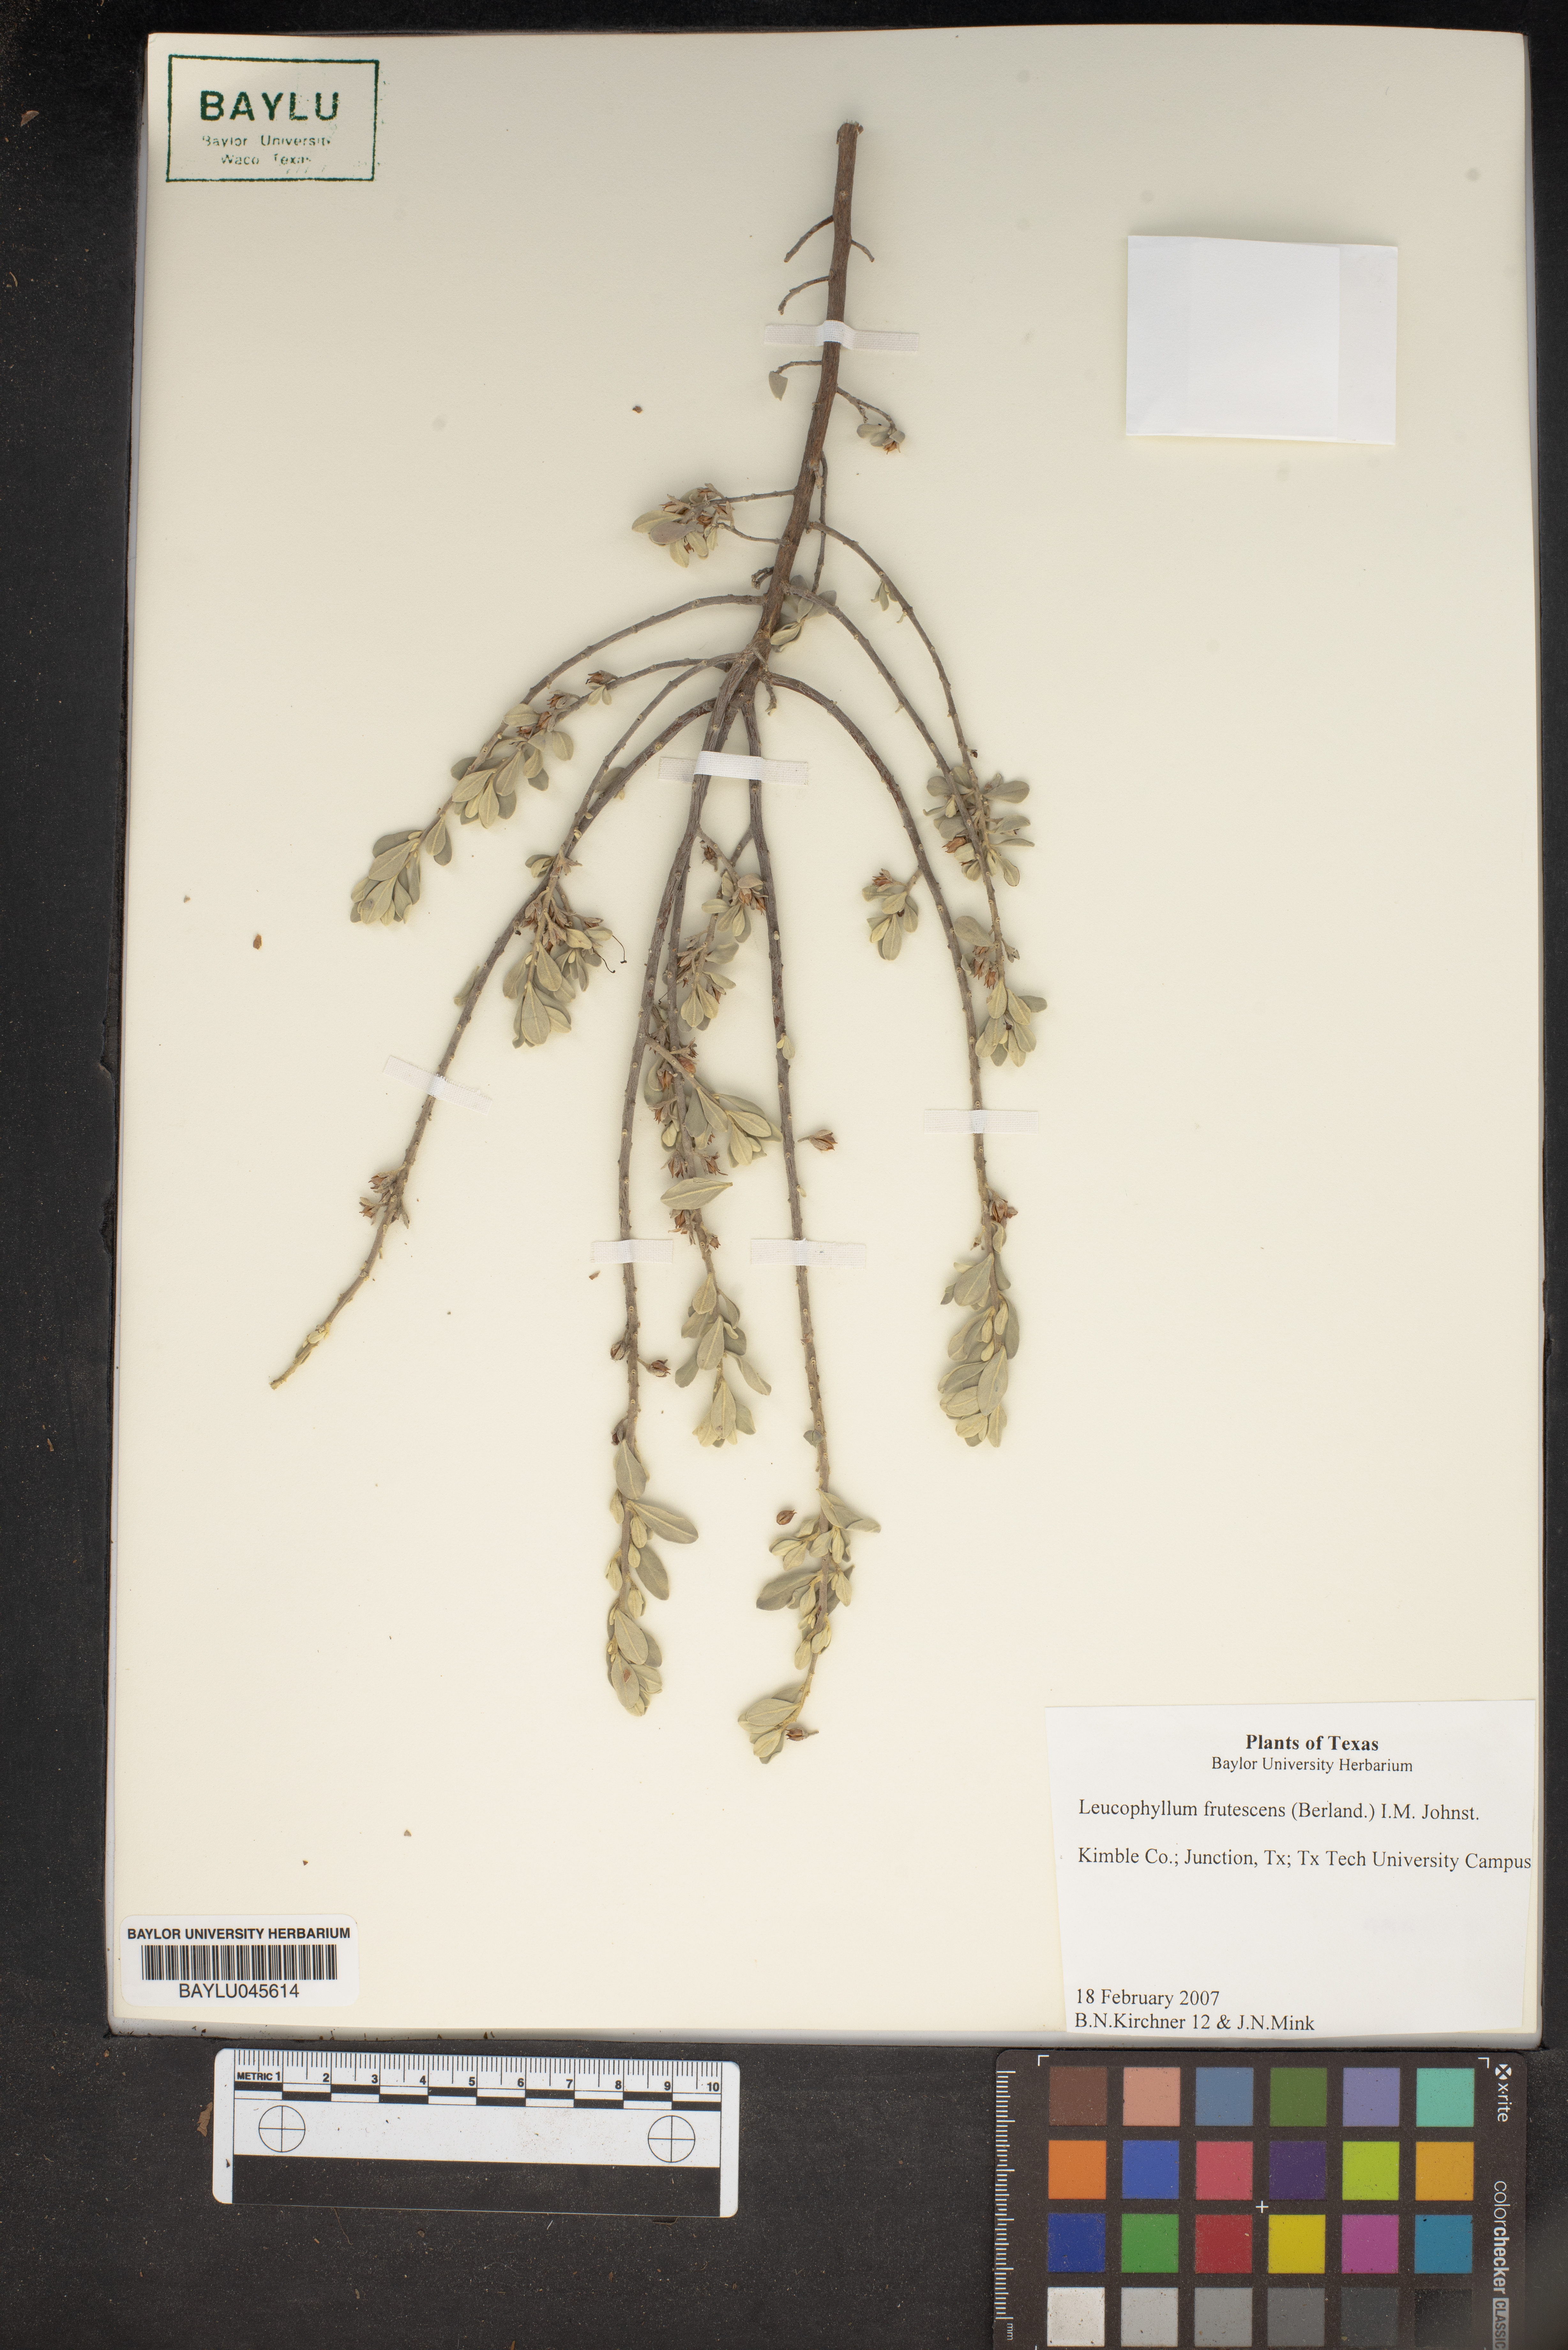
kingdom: Plantae
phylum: Tracheophyta
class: Magnoliopsida
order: Lamiales
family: Scrophulariaceae
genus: Leucophyllum
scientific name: Leucophyllum frutescens
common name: Texas silverleaf
